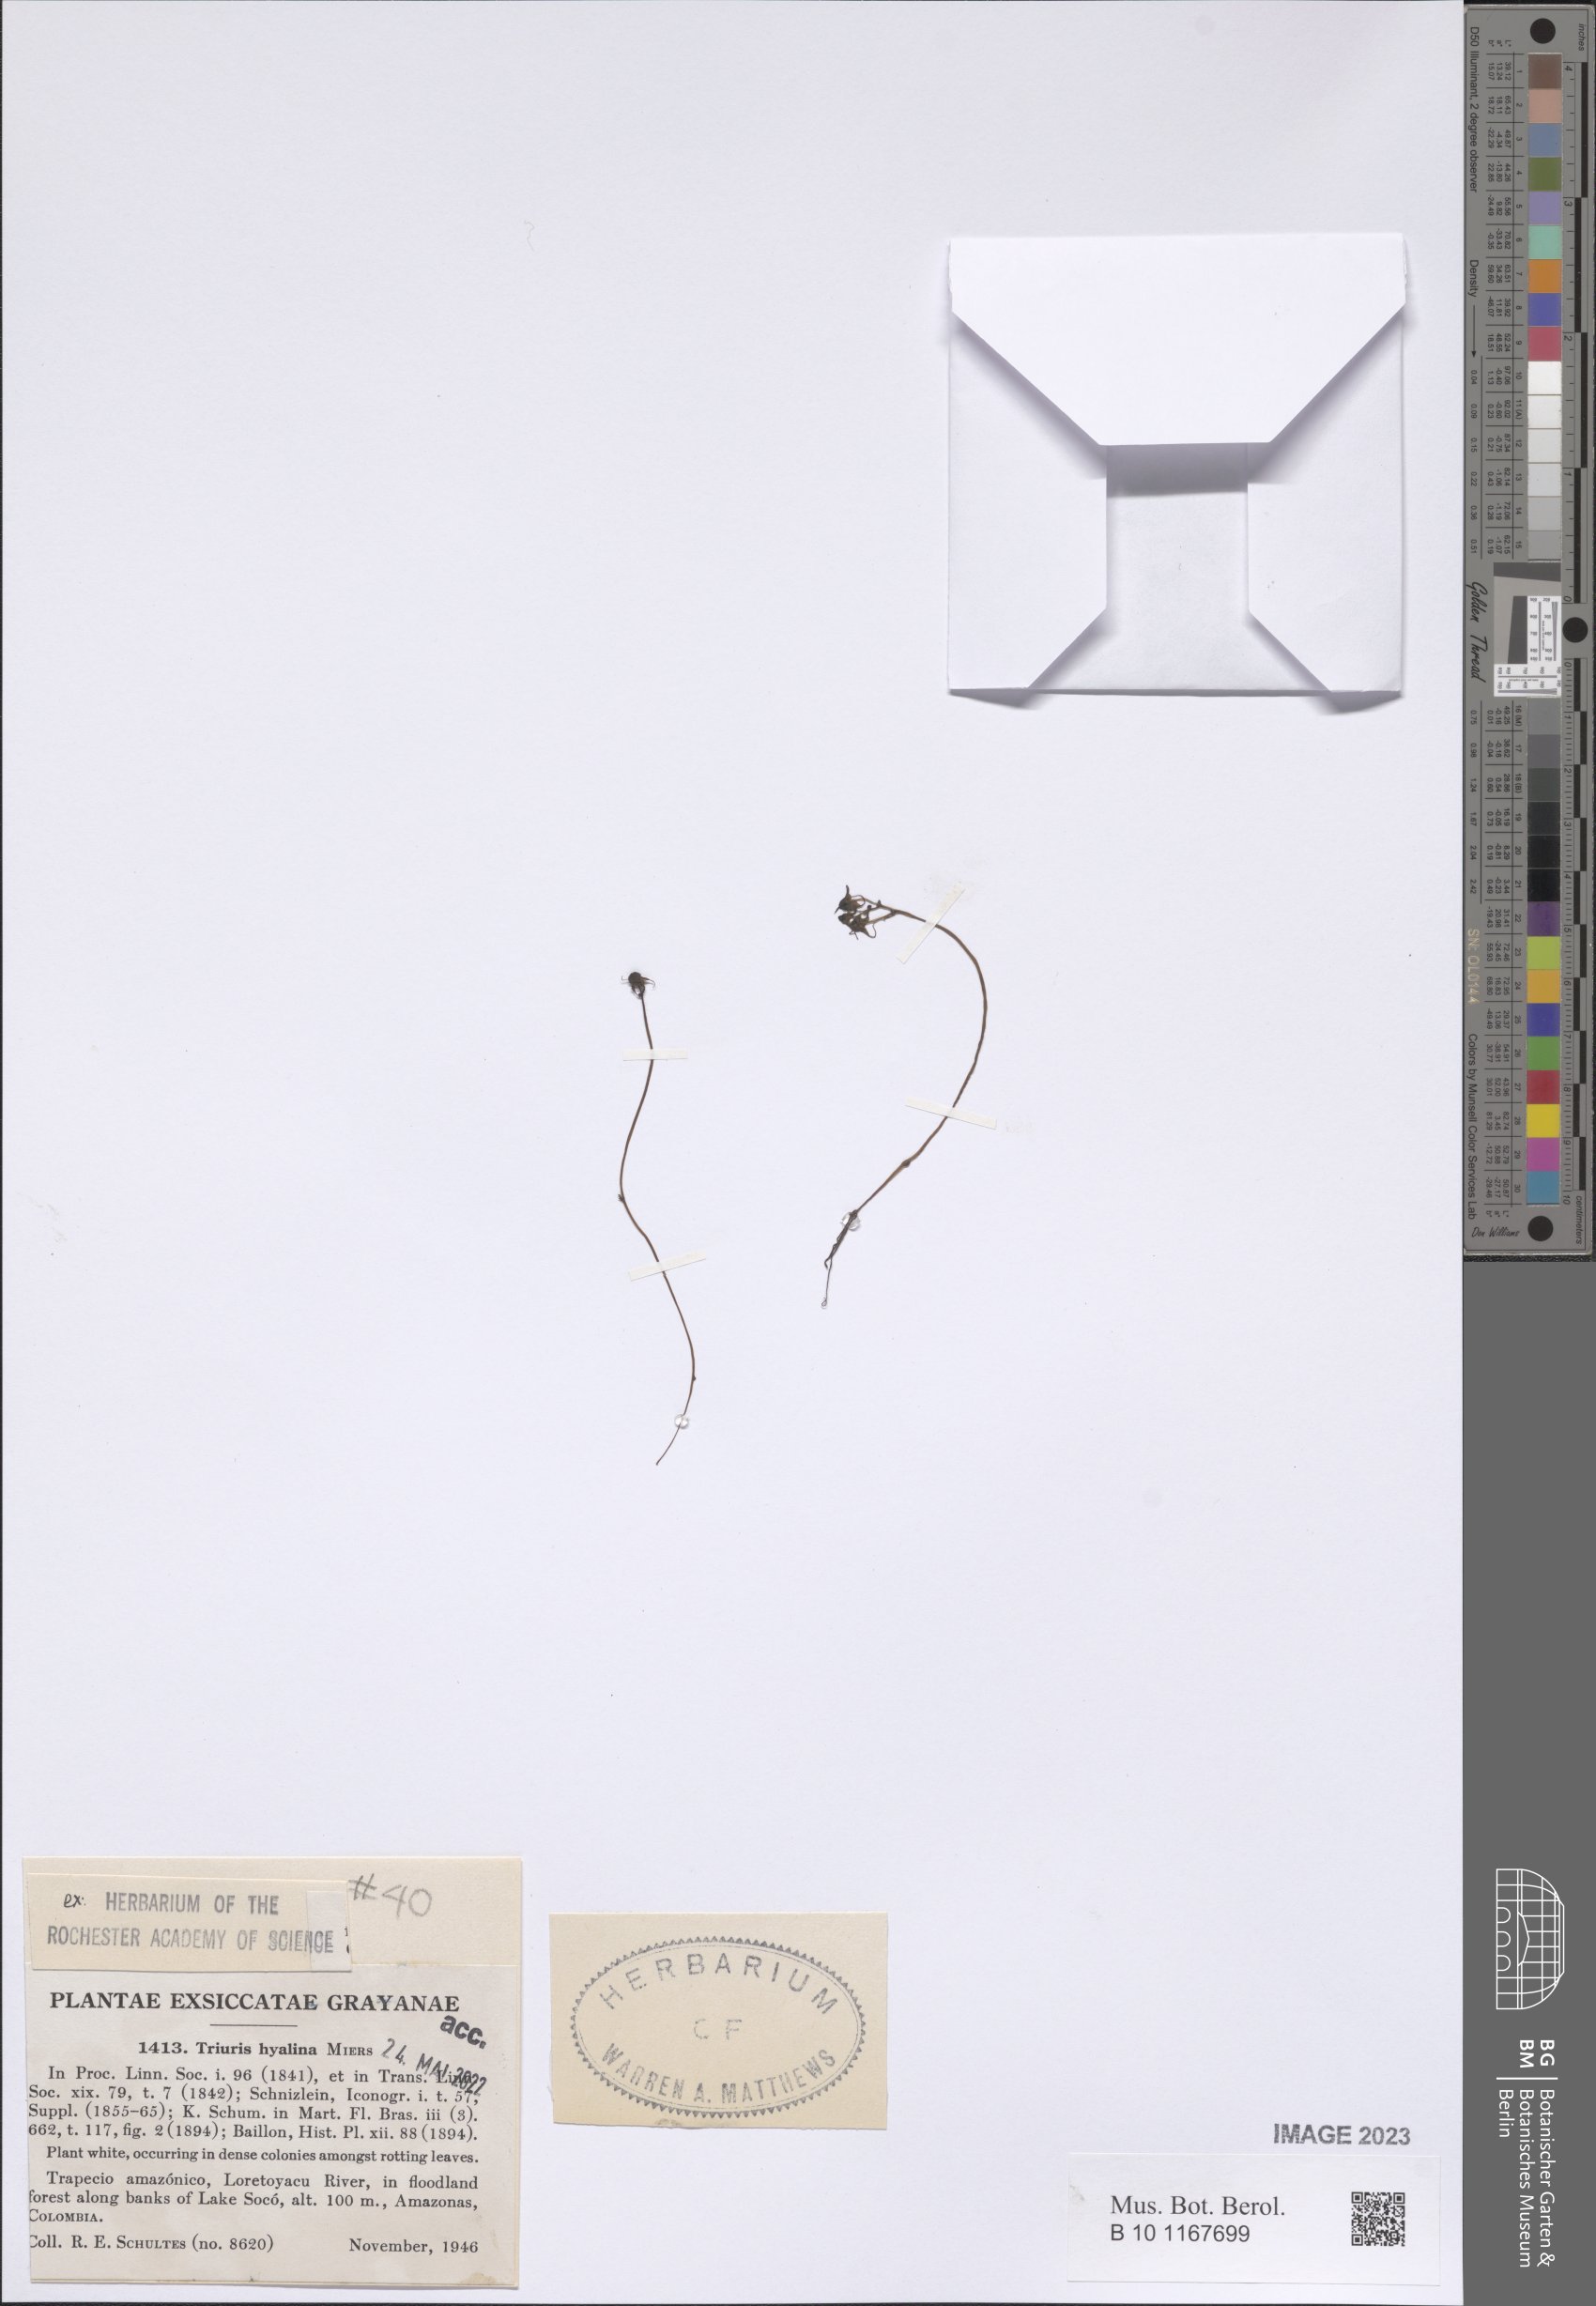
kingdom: Plantae
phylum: Tracheophyta
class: Liliopsida
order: Pandanales
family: Triuridaceae
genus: Triuris
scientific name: Triuris hyalina
